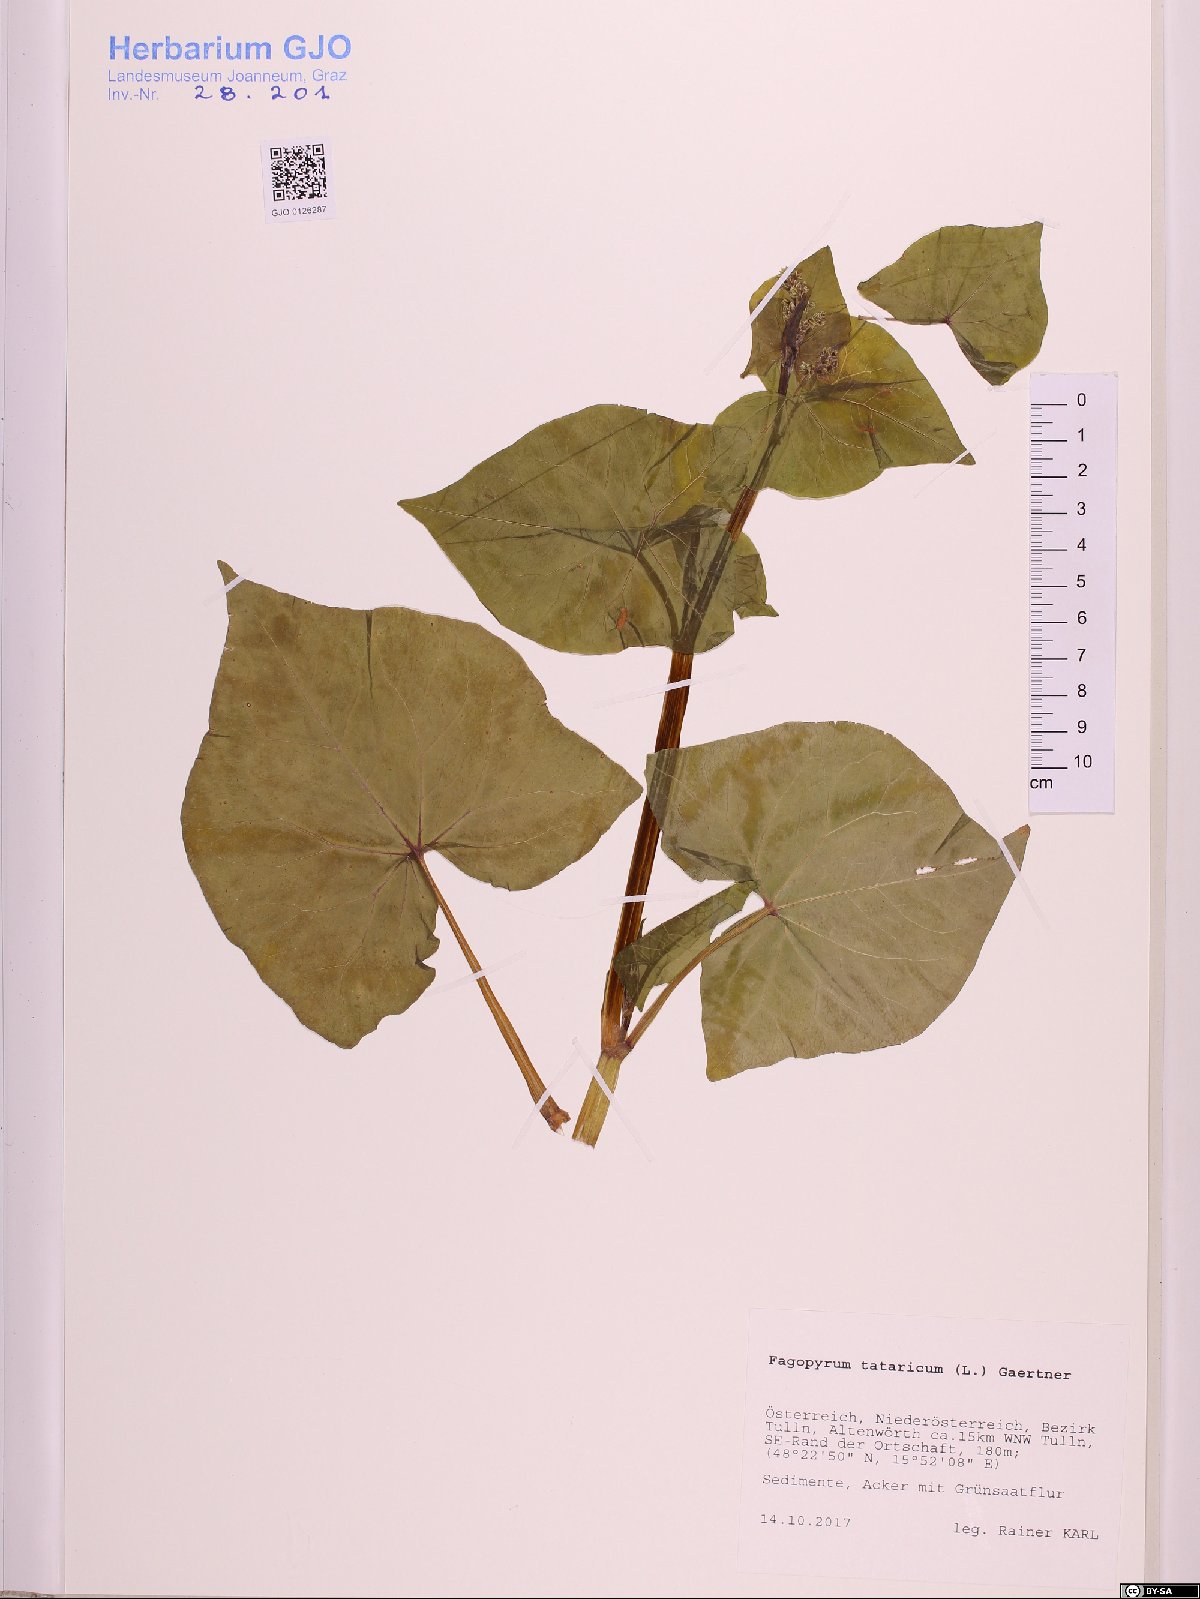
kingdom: Plantae
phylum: Tracheophyta
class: Magnoliopsida
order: Caryophyllales
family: Polygonaceae
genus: Fagopyrum
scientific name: Fagopyrum tataricum
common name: Green buckwheat
